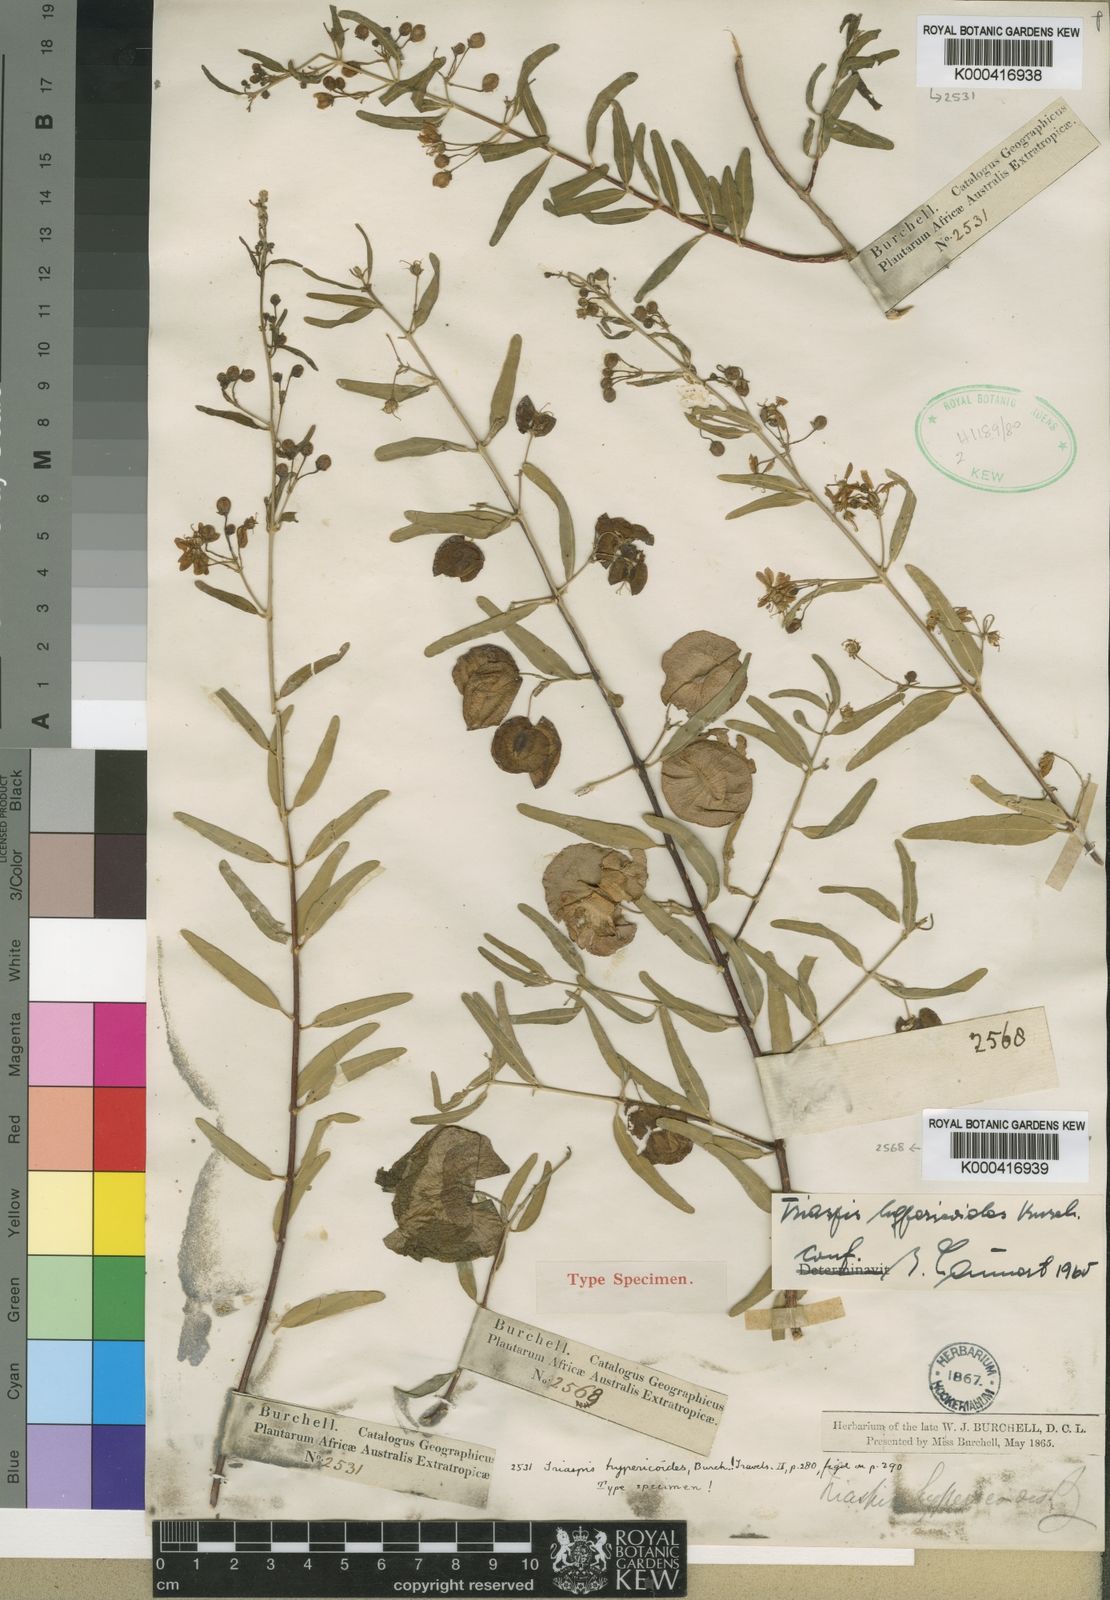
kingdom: Plantae
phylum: Tracheophyta
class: Magnoliopsida
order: Malpighiales
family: Malpighiaceae
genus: Triaspis
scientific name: Triaspis hypericoides
